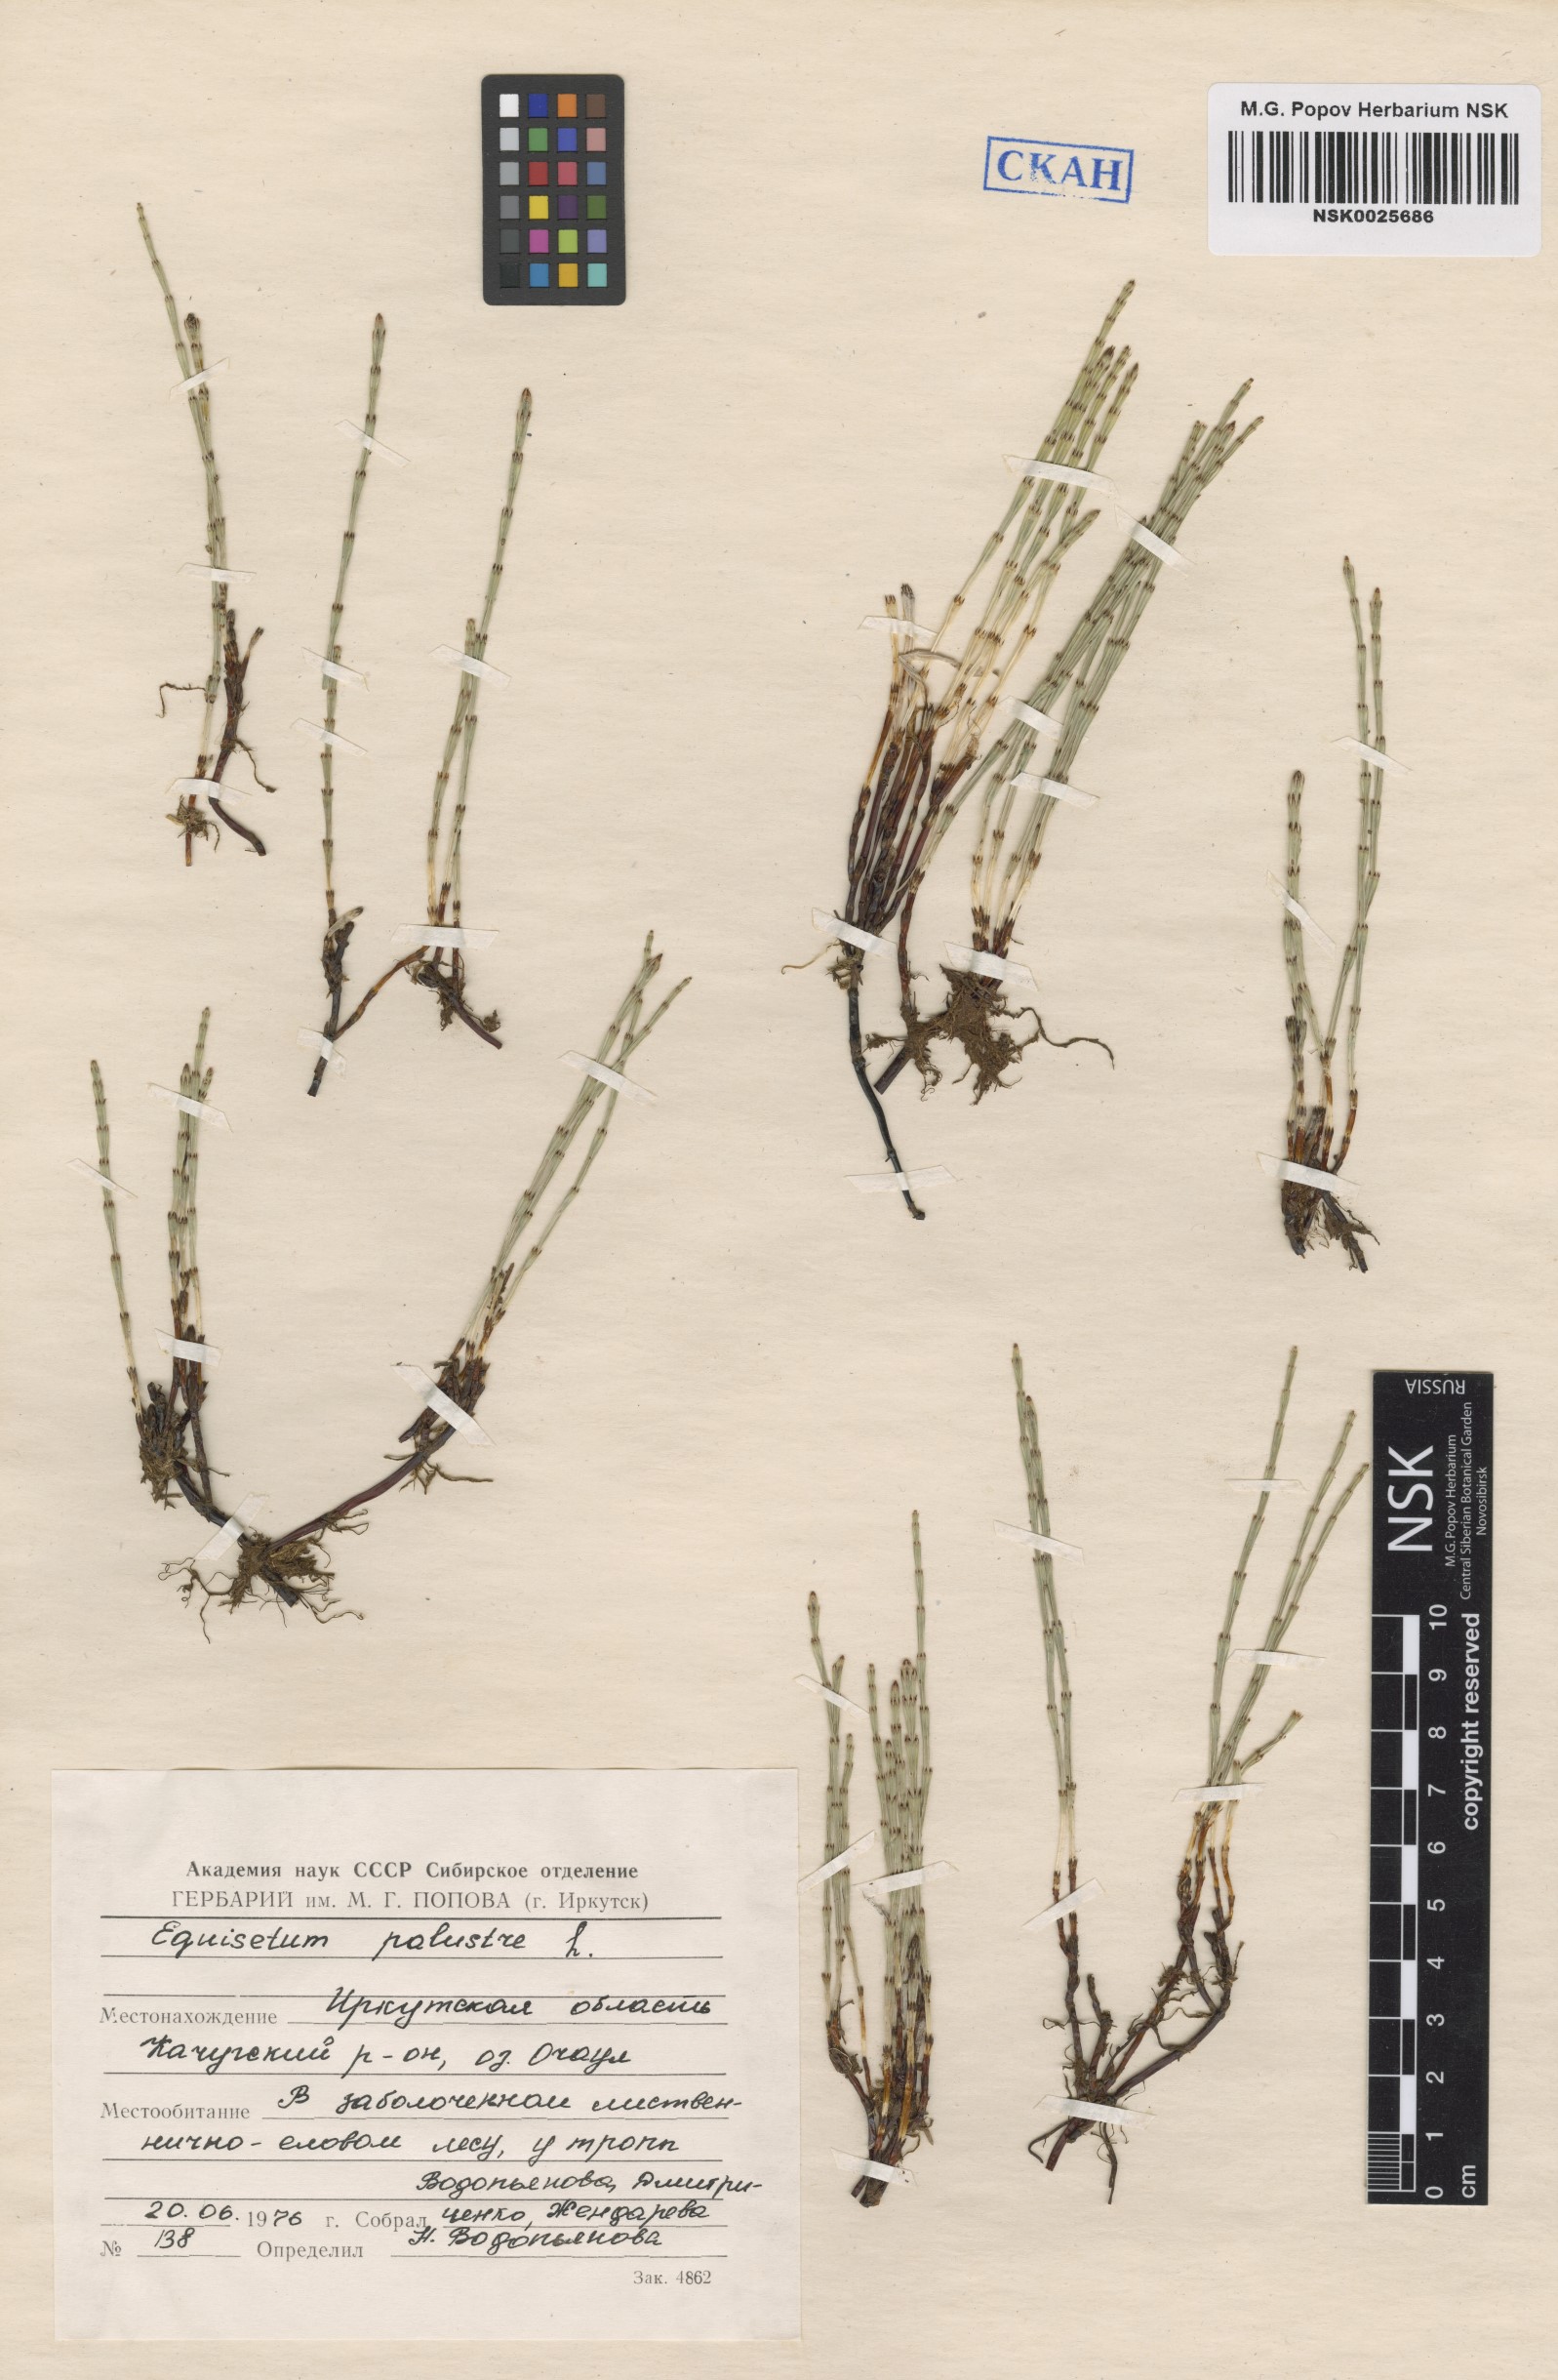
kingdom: Plantae
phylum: Tracheophyta
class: Polypodiopsida
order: Equisetales
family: Equisetaceae
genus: Equisetum
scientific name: Equisetum palustre
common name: Marsh horsetail
